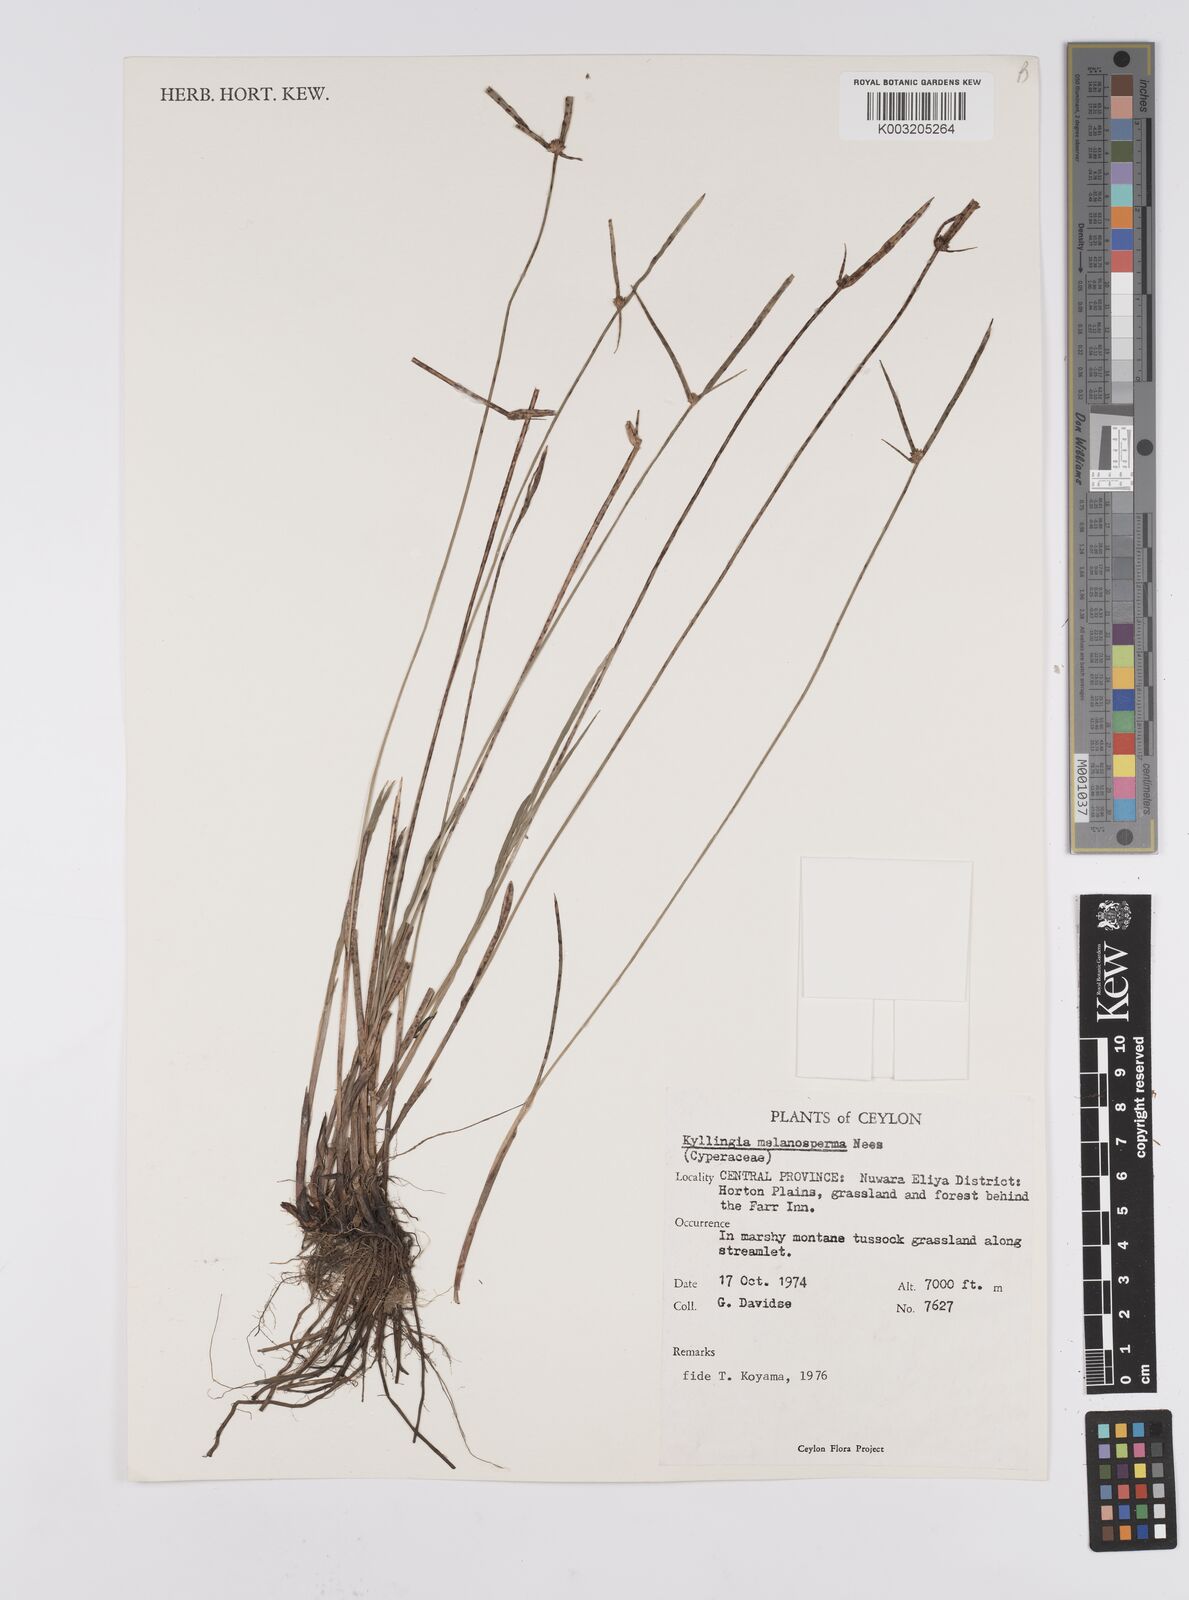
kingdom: Plantae
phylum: Tracheophyta
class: Liliopsida
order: Poales
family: Cyperaceae
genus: Cyperus
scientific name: Cyperus melanospermus
